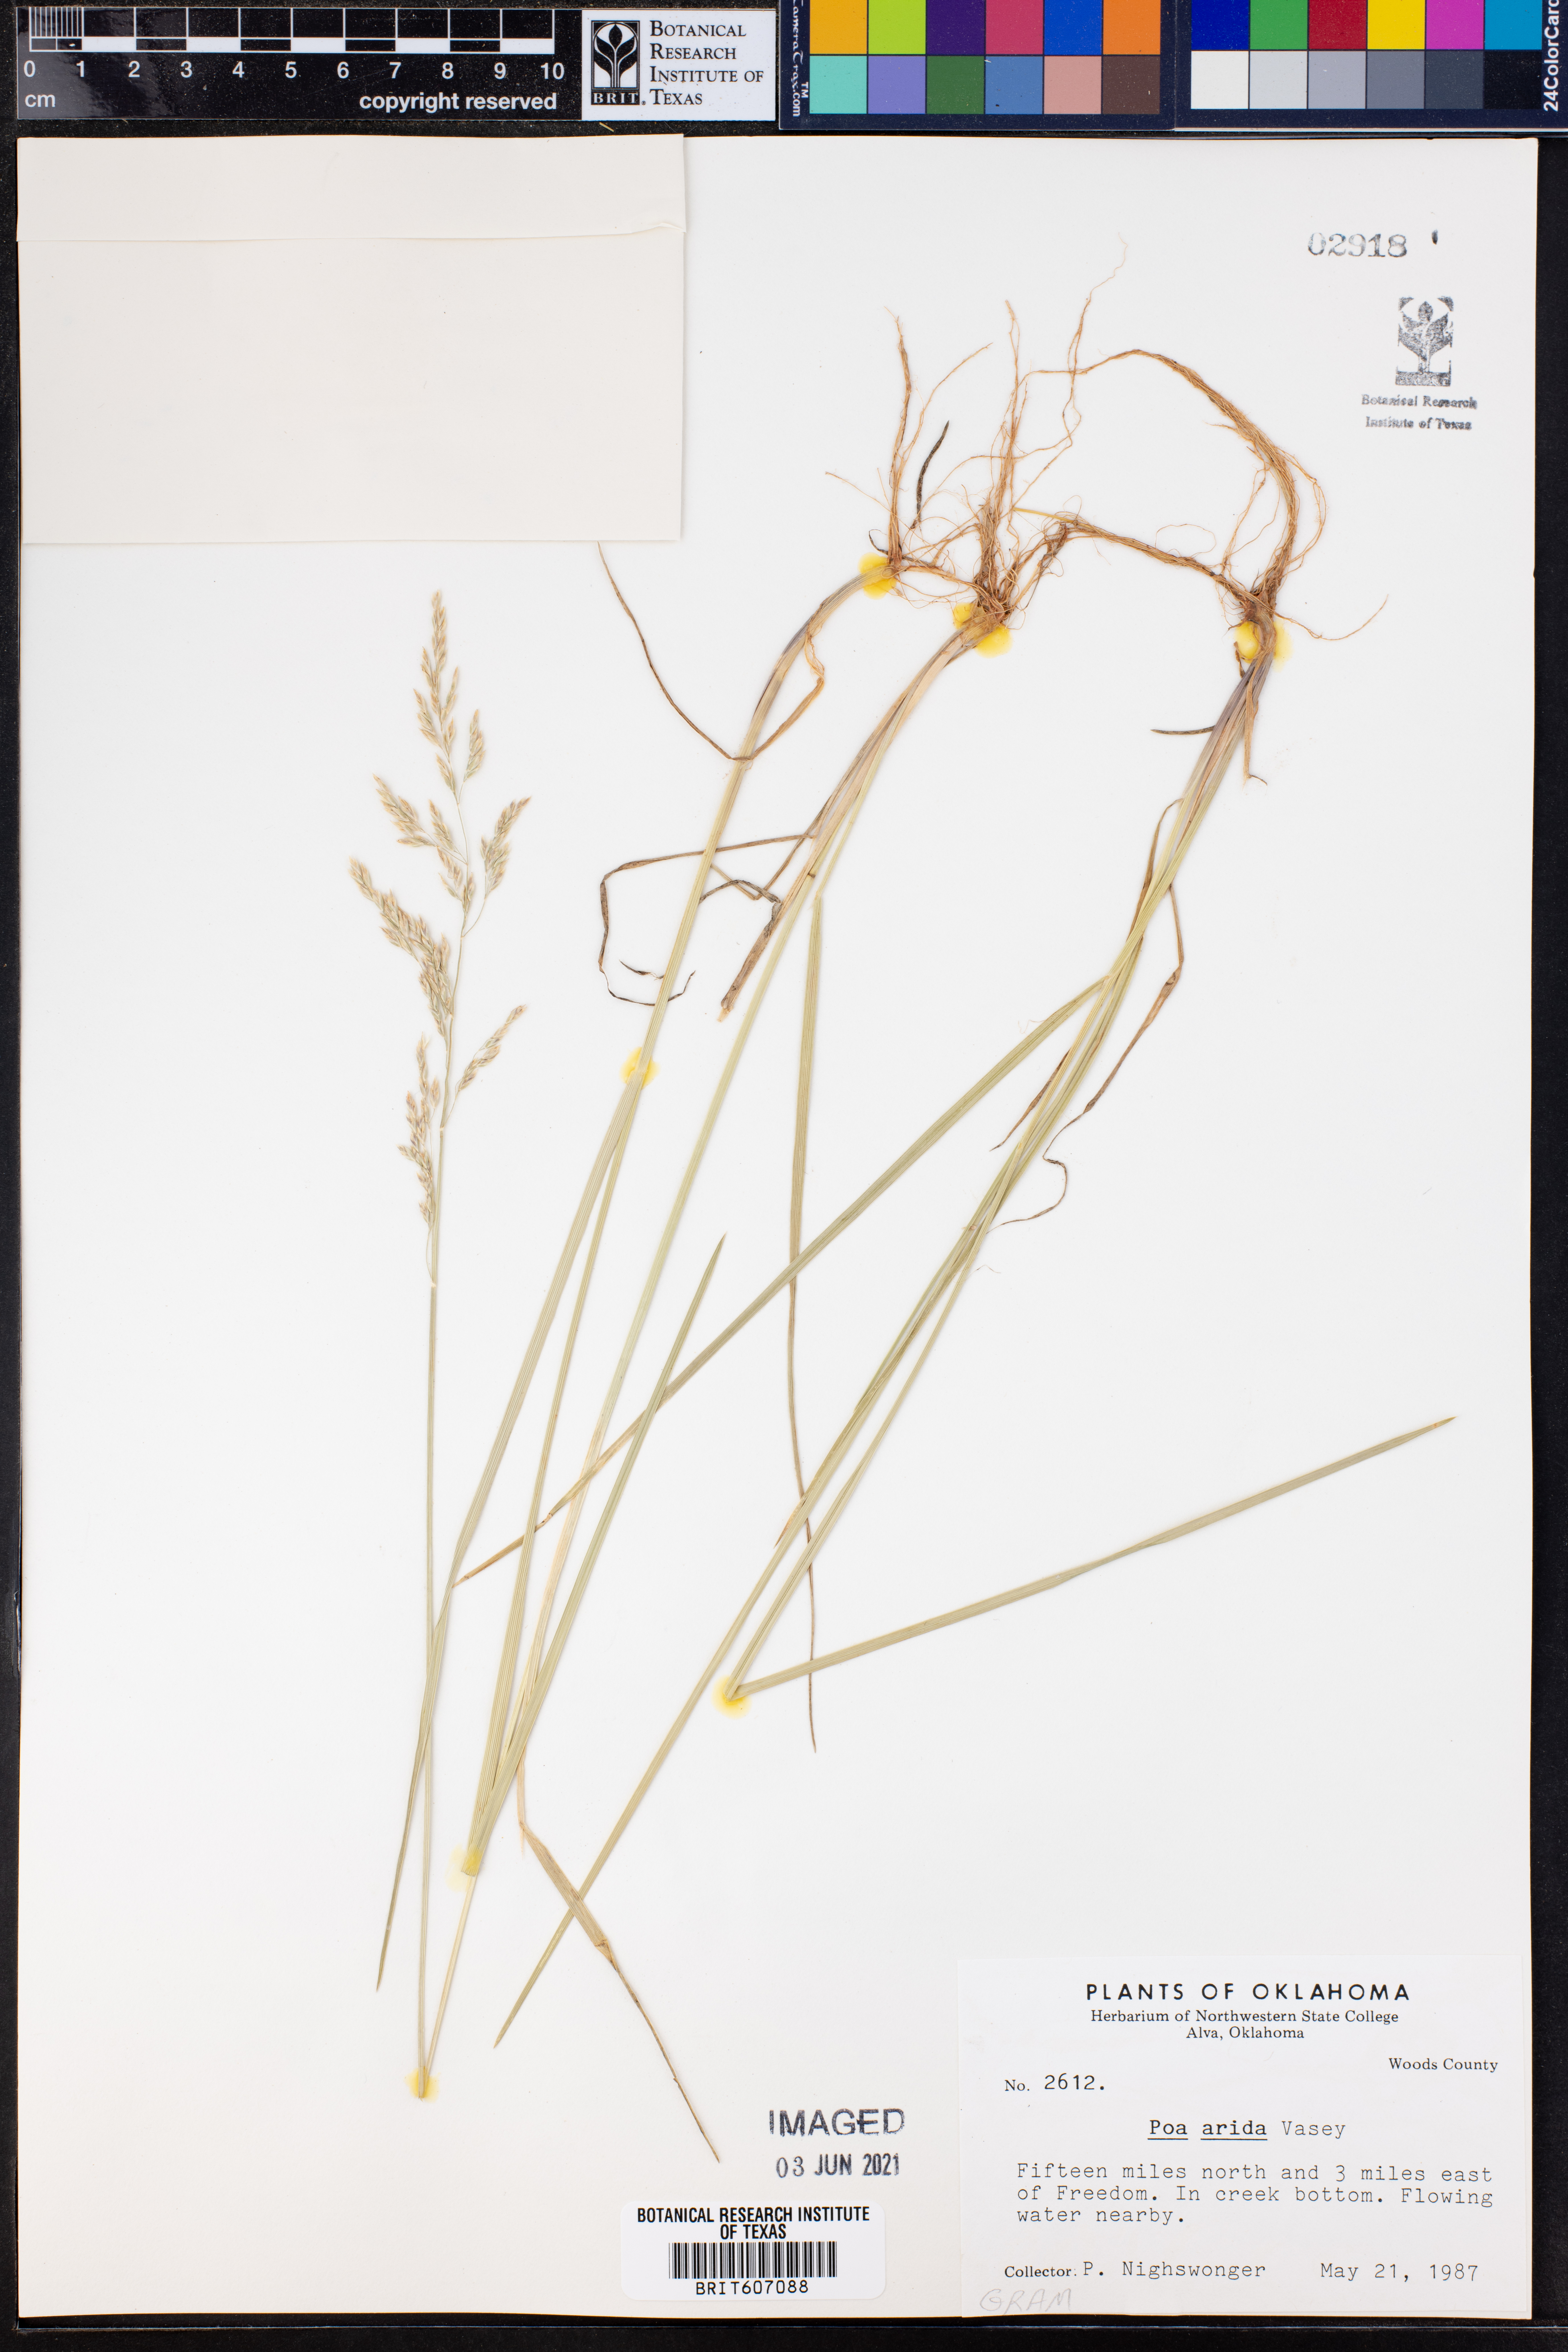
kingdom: Plantae
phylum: Tracheophyta
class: Liliopsida
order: Poales
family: Poaceae
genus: Poa
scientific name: Poa arida
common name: Plains bluegrass
